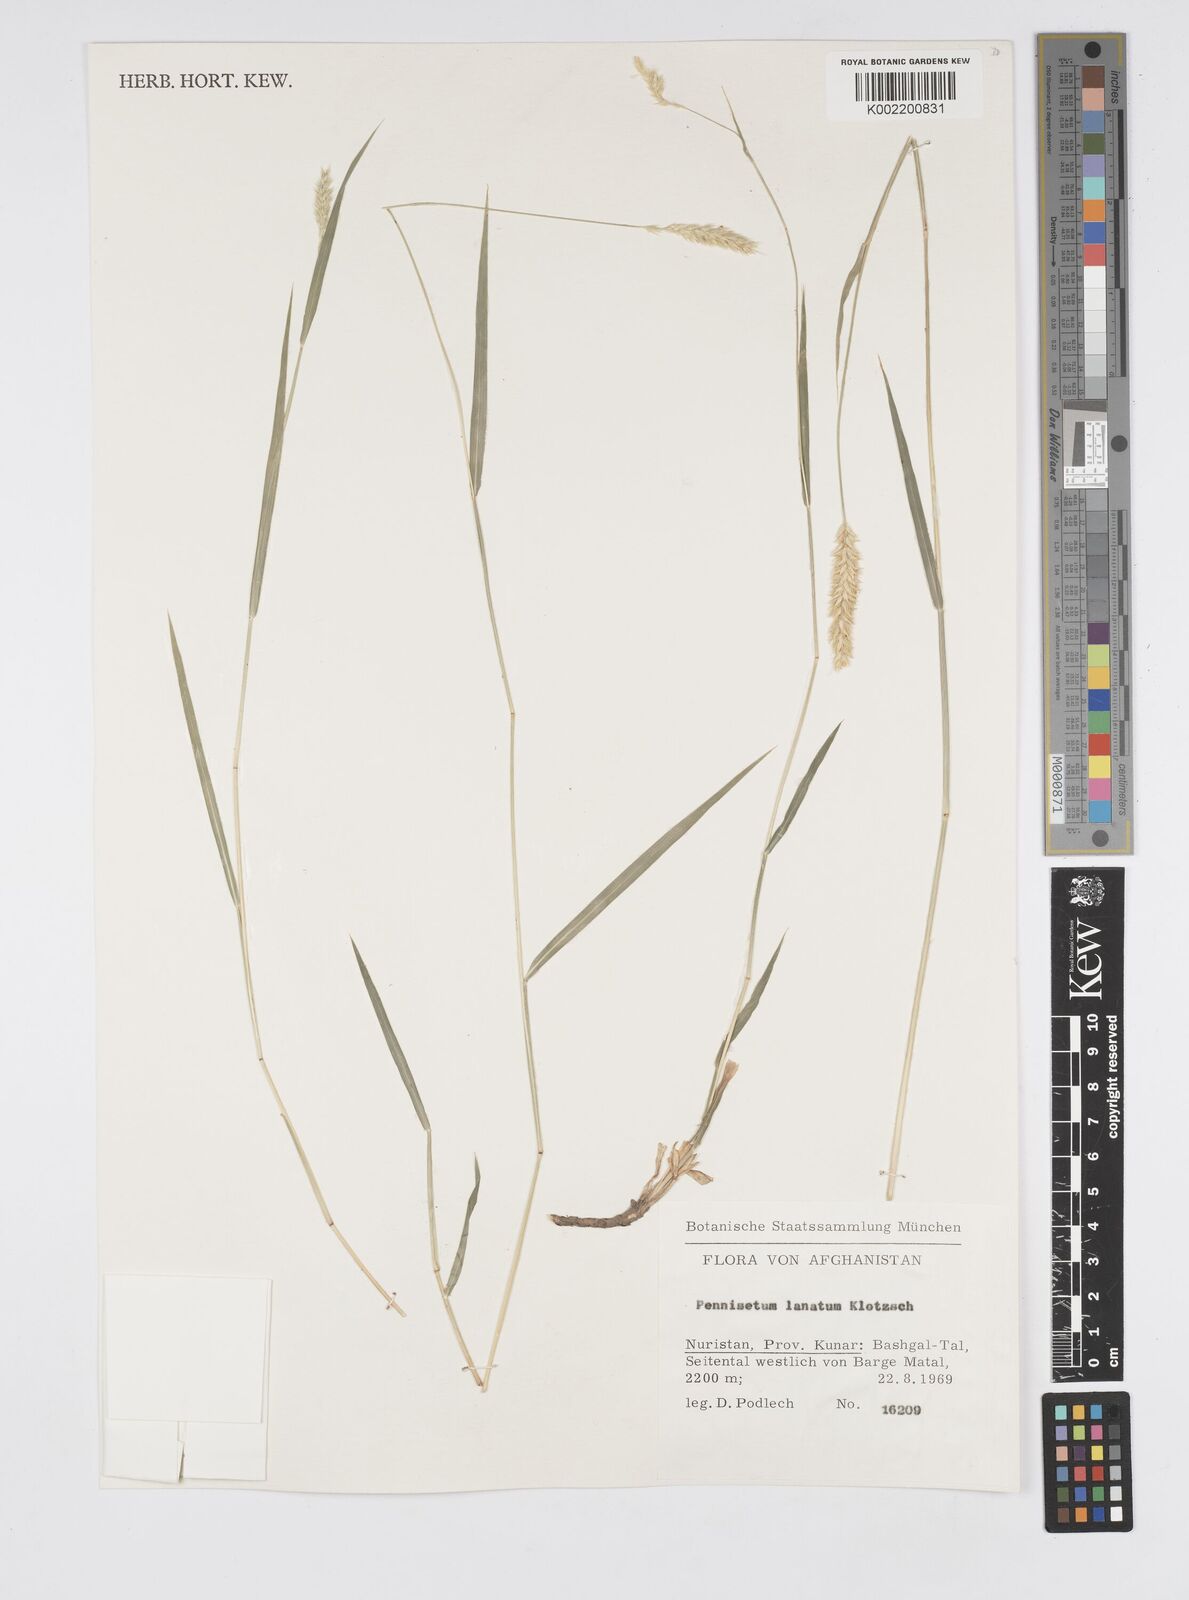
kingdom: Plantae
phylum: Tracheophyta
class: Liliopsida
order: Poales
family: Poaceae
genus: Cenchrus
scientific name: Cenchrus lanatus
